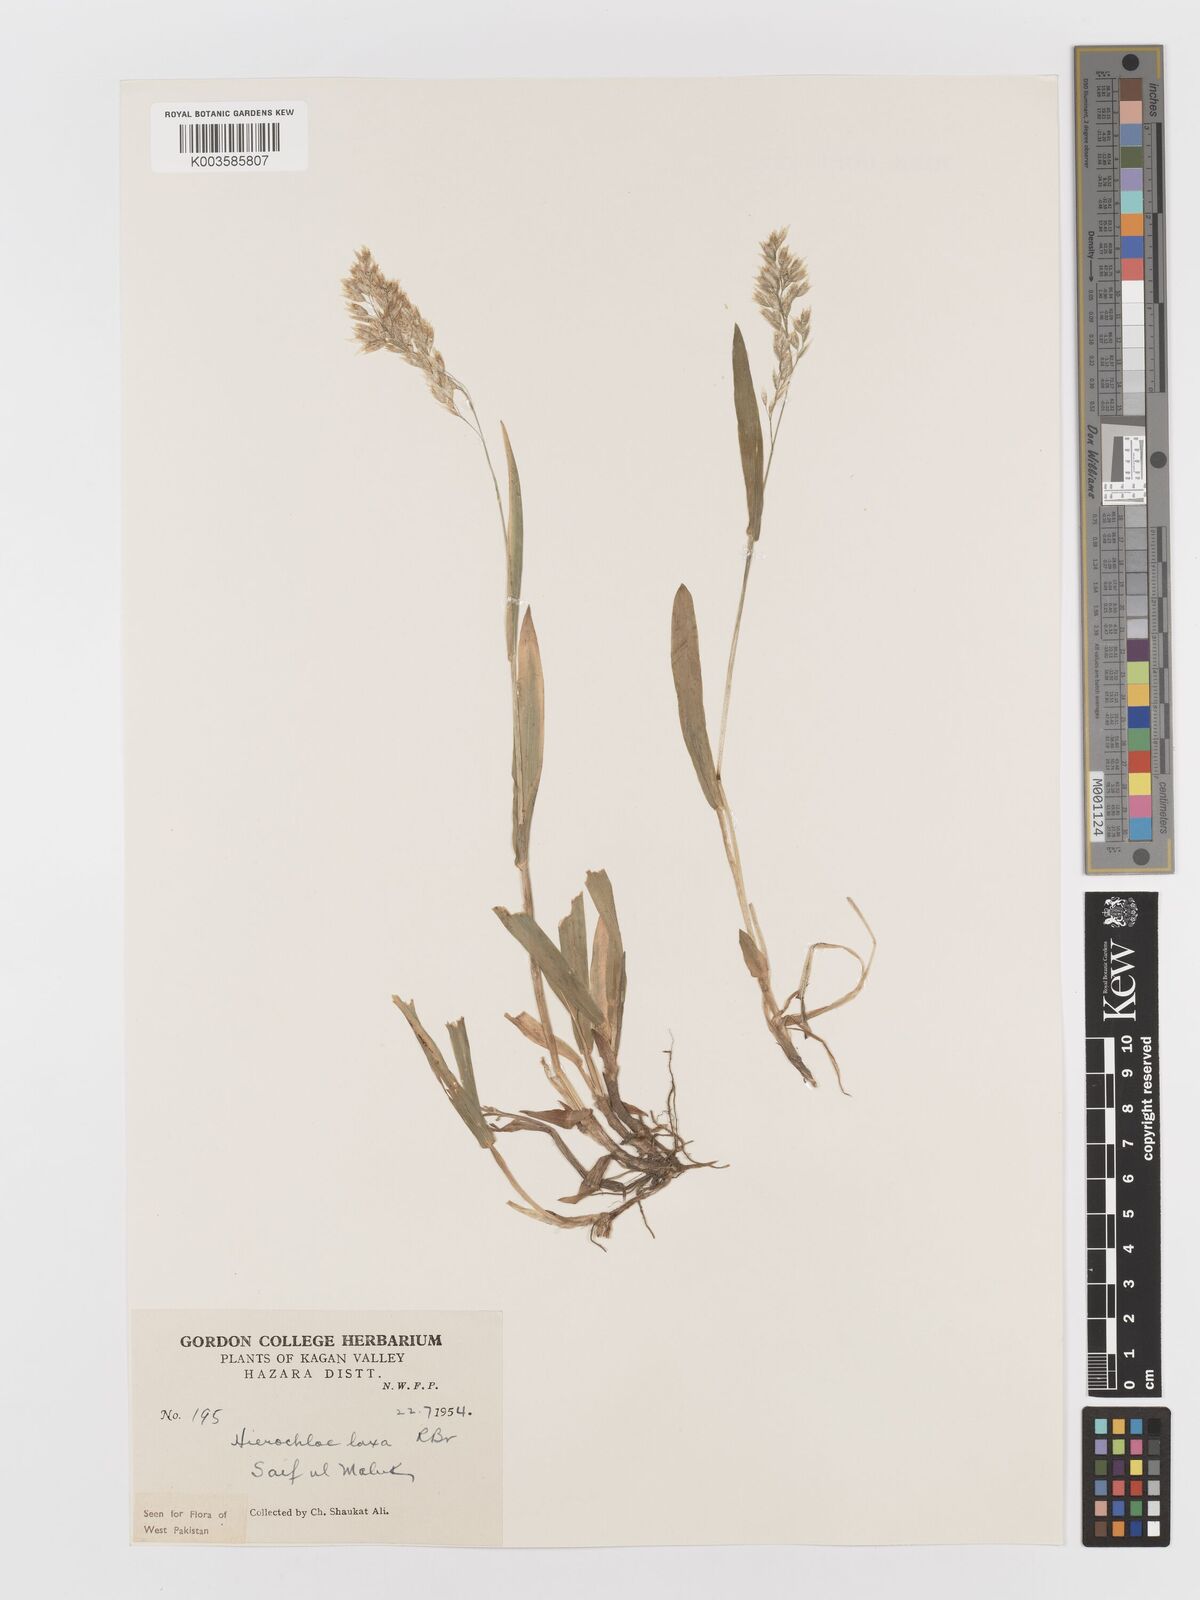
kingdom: Plantae
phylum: Tracheophyta
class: Liliopsida
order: Poales
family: Poaceae
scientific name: Poaceae
